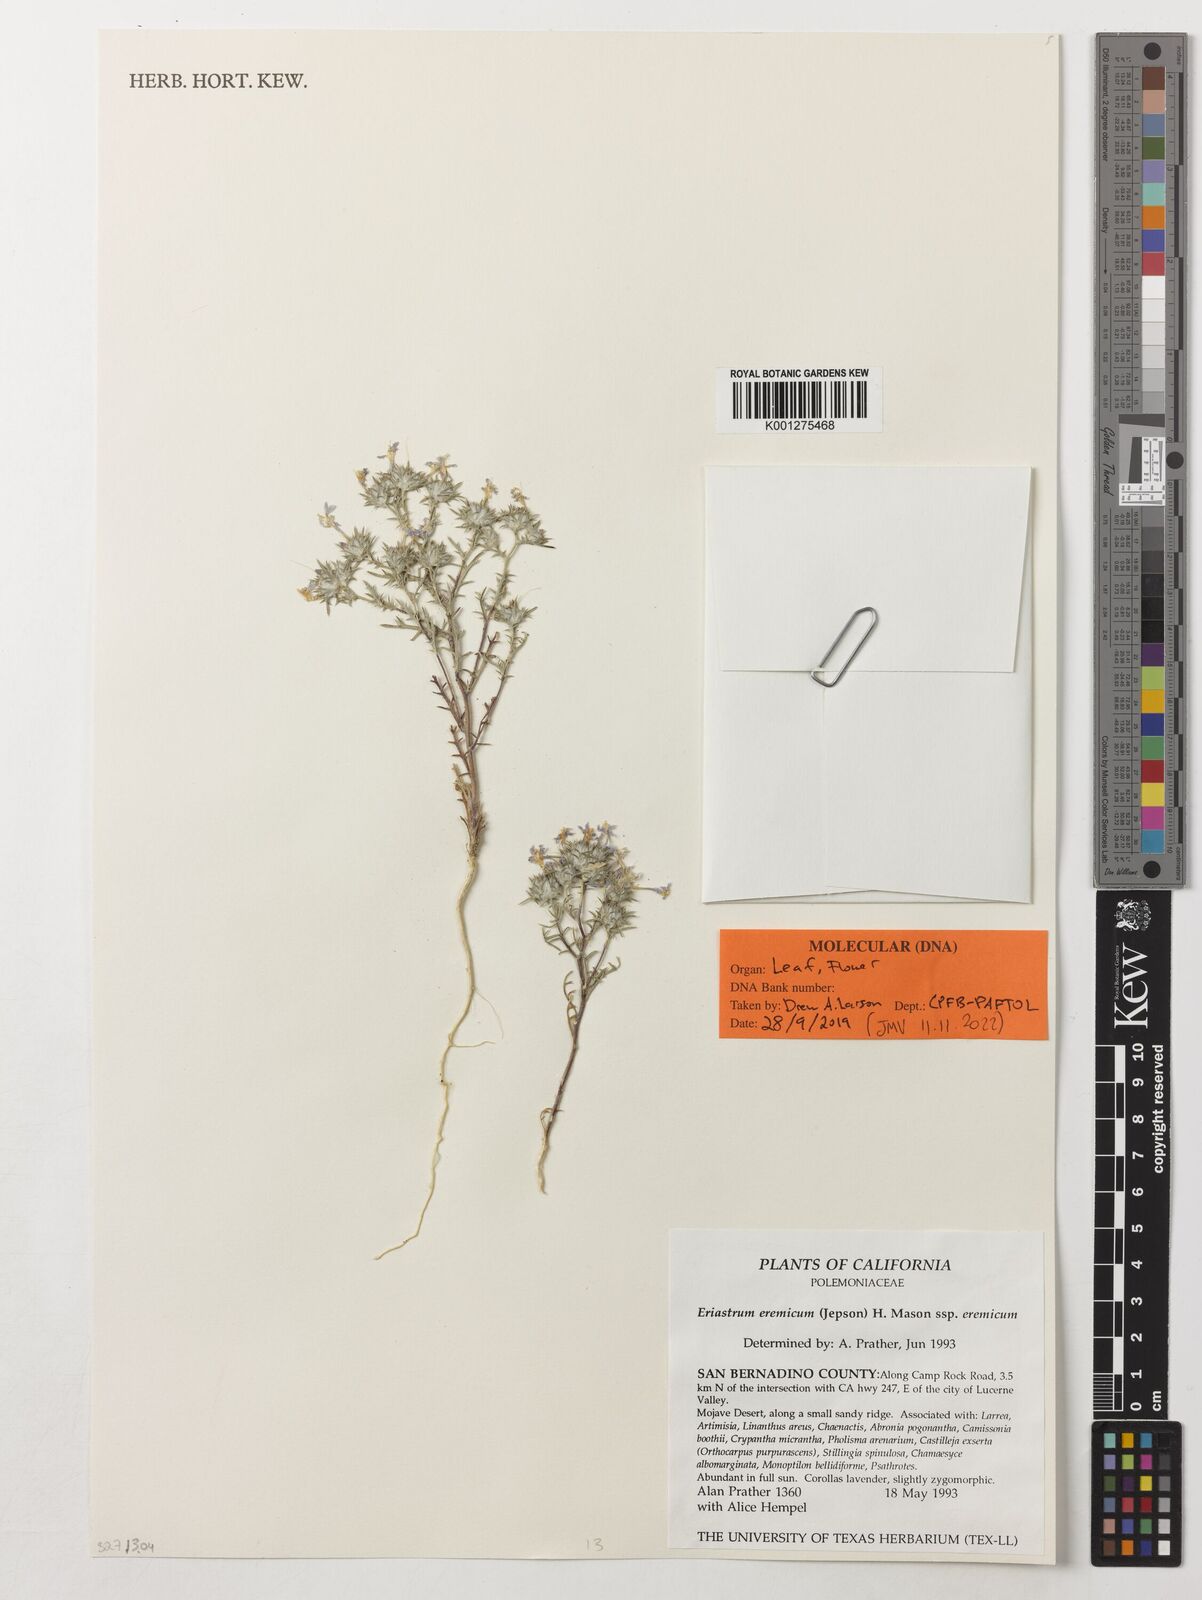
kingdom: Plantae
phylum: Tracheophyta
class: Magnoliopsida
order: Ericales
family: Polemoniaceae
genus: Eriastrum
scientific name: Eriastrum eremicum
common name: Desert eriastrum
